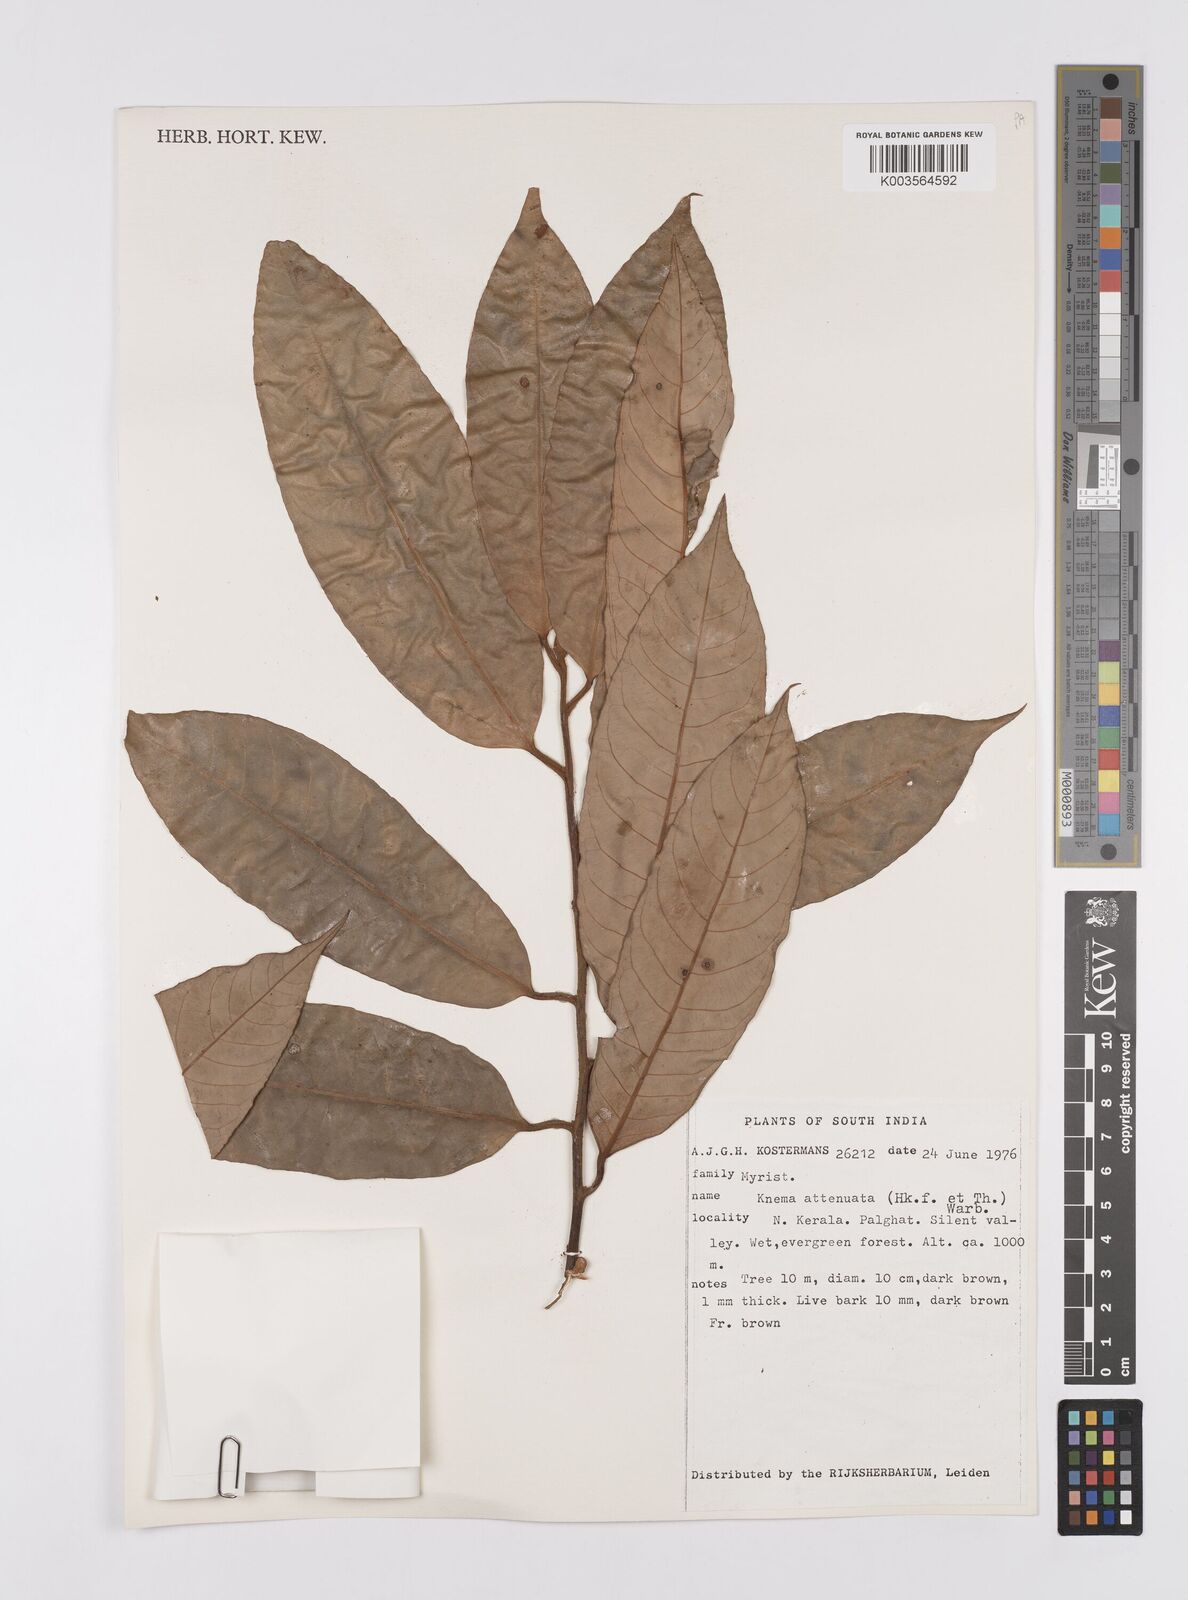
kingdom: Plantae
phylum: Tracheophyta
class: Magnoliopsida
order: Magnoliales
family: Myristicaceae
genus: Knema
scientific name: Knema attenuata
